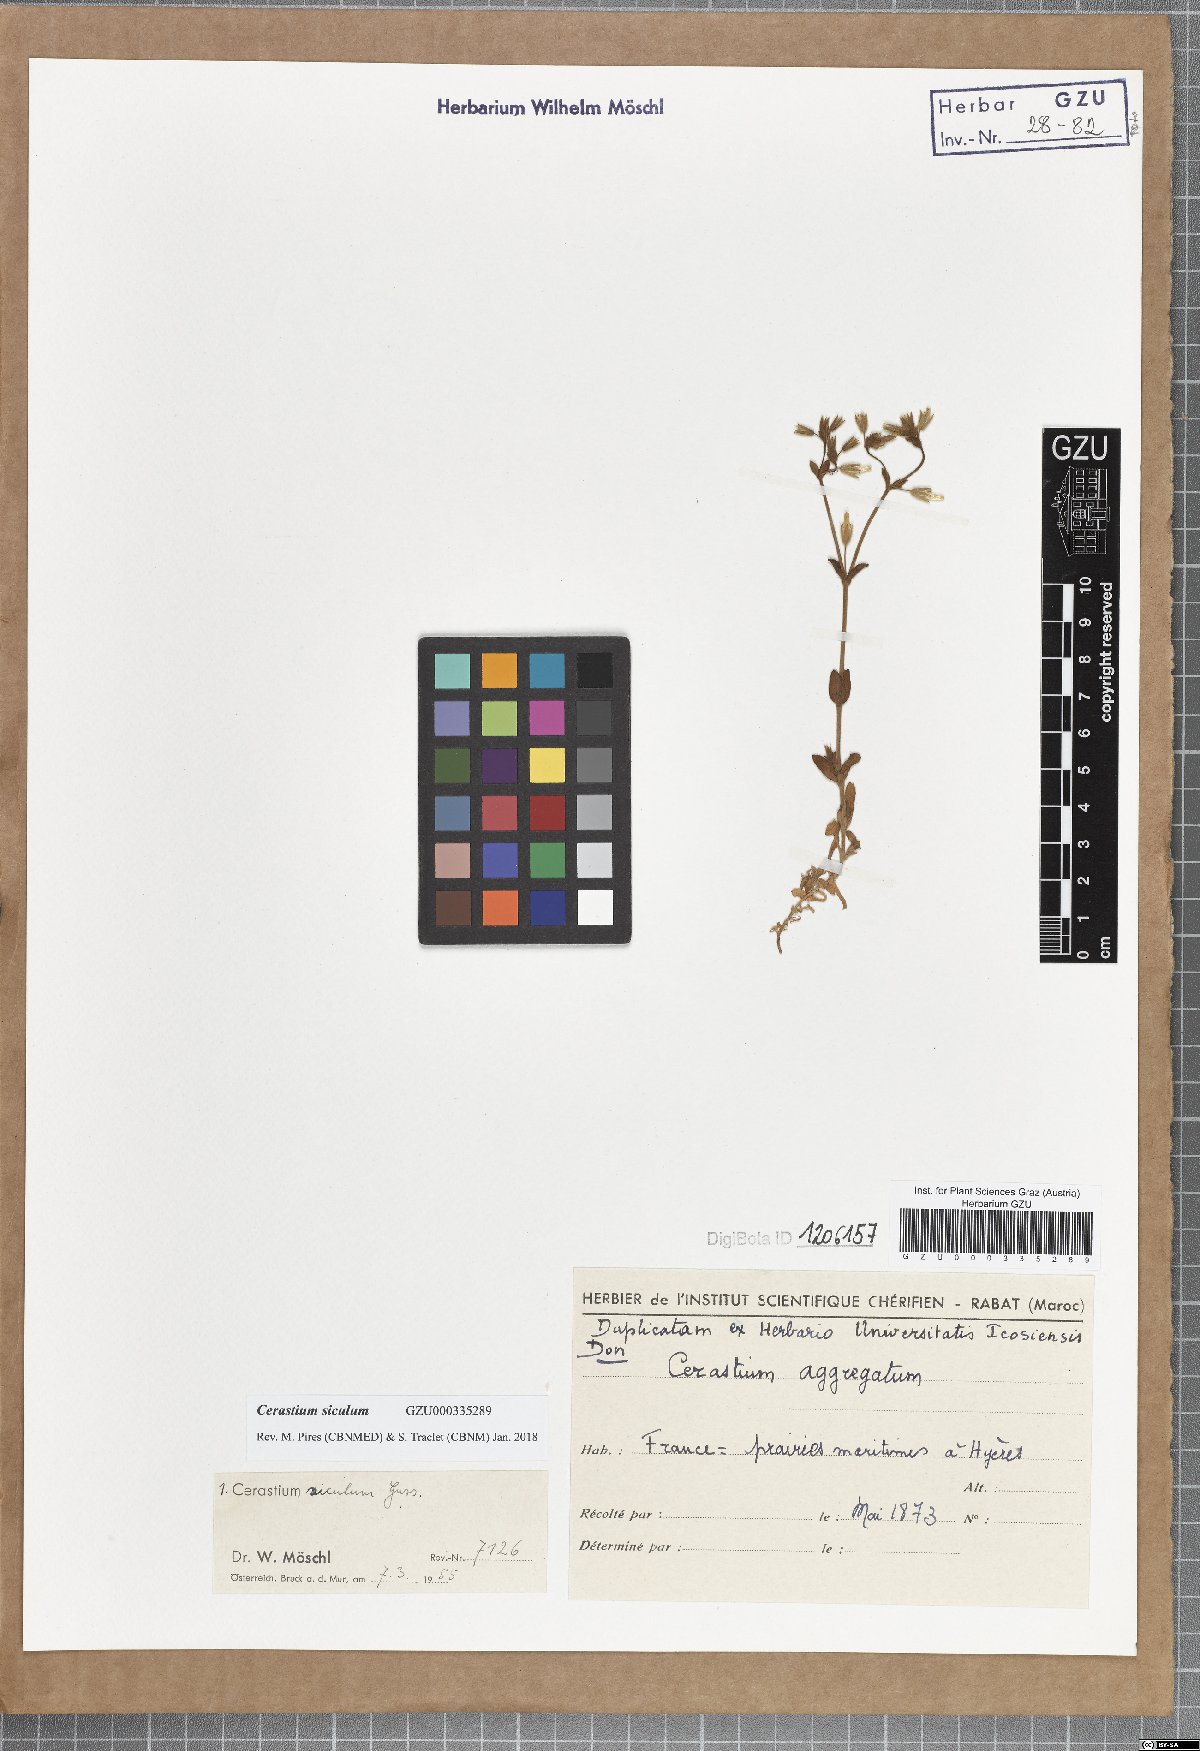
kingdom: Plantae
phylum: Tracheophyta
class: Magnoliopsida
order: Caryophyllales
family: Caryophyllaceae
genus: Cerastium
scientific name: Cerastium siculum
